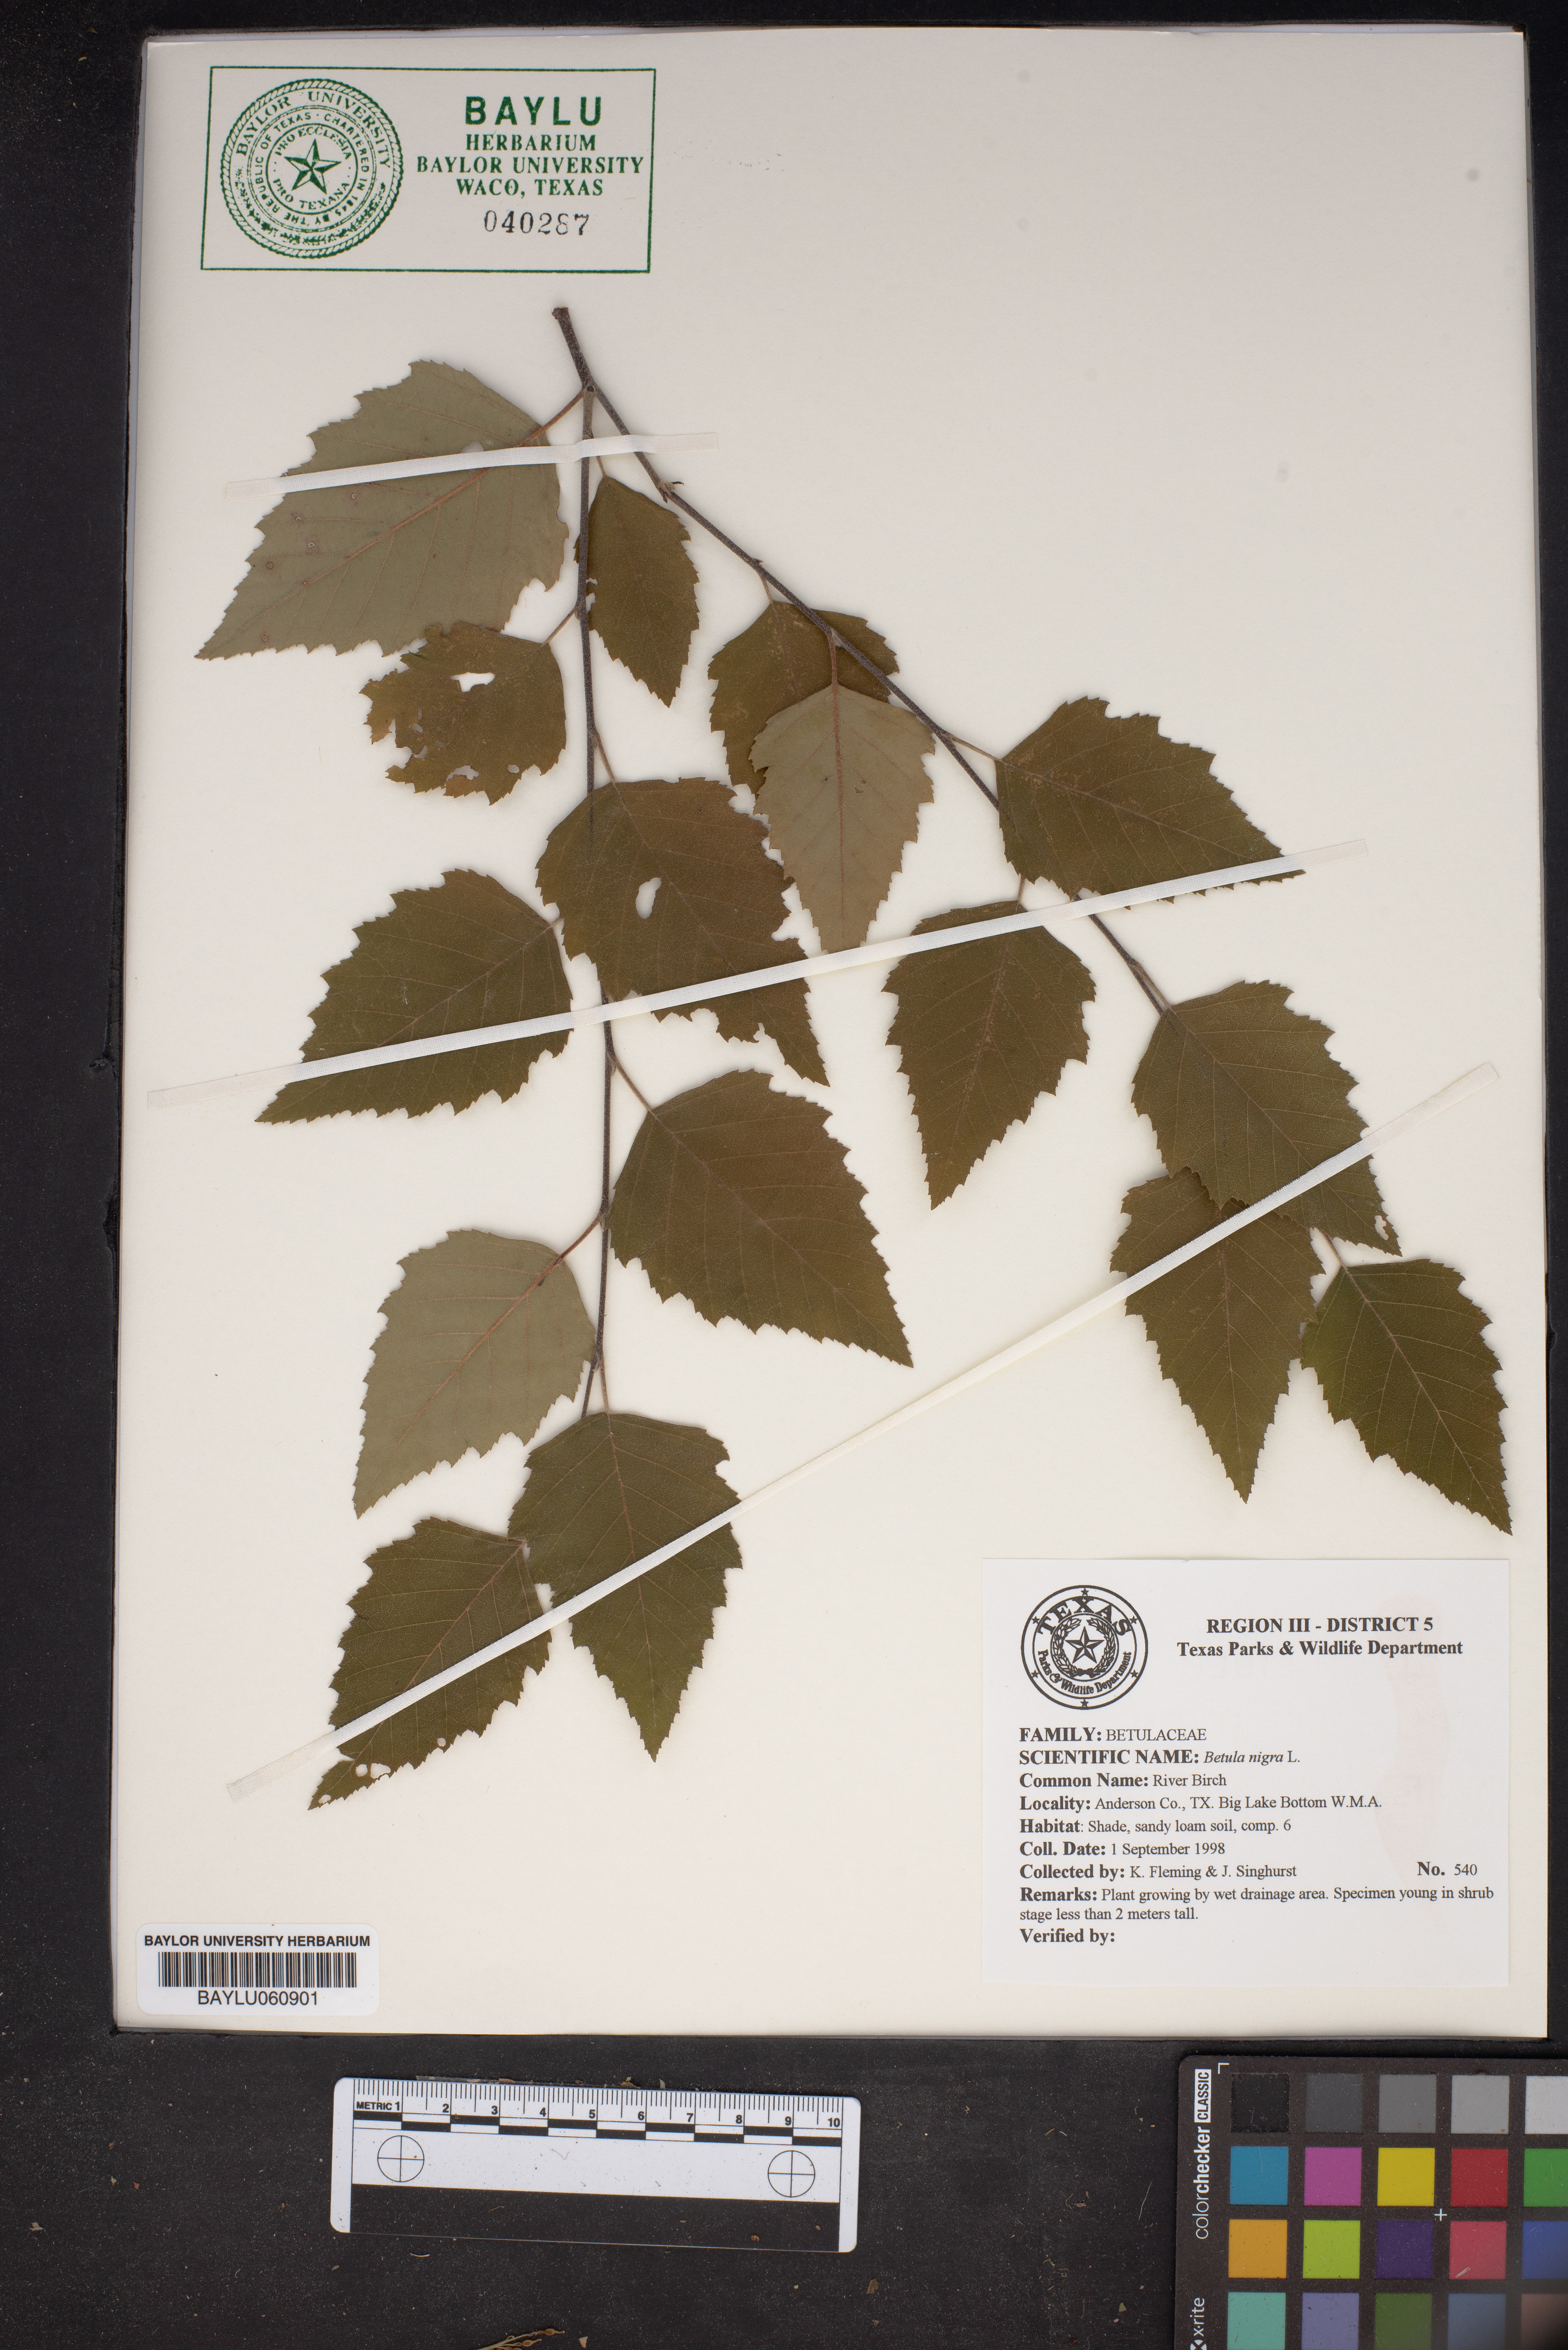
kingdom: Plantae
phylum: Tracheophyta
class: Magnoliopsida
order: Fagales
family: Betulaceae
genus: Betula
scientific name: Betula nigra
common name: Black birch
